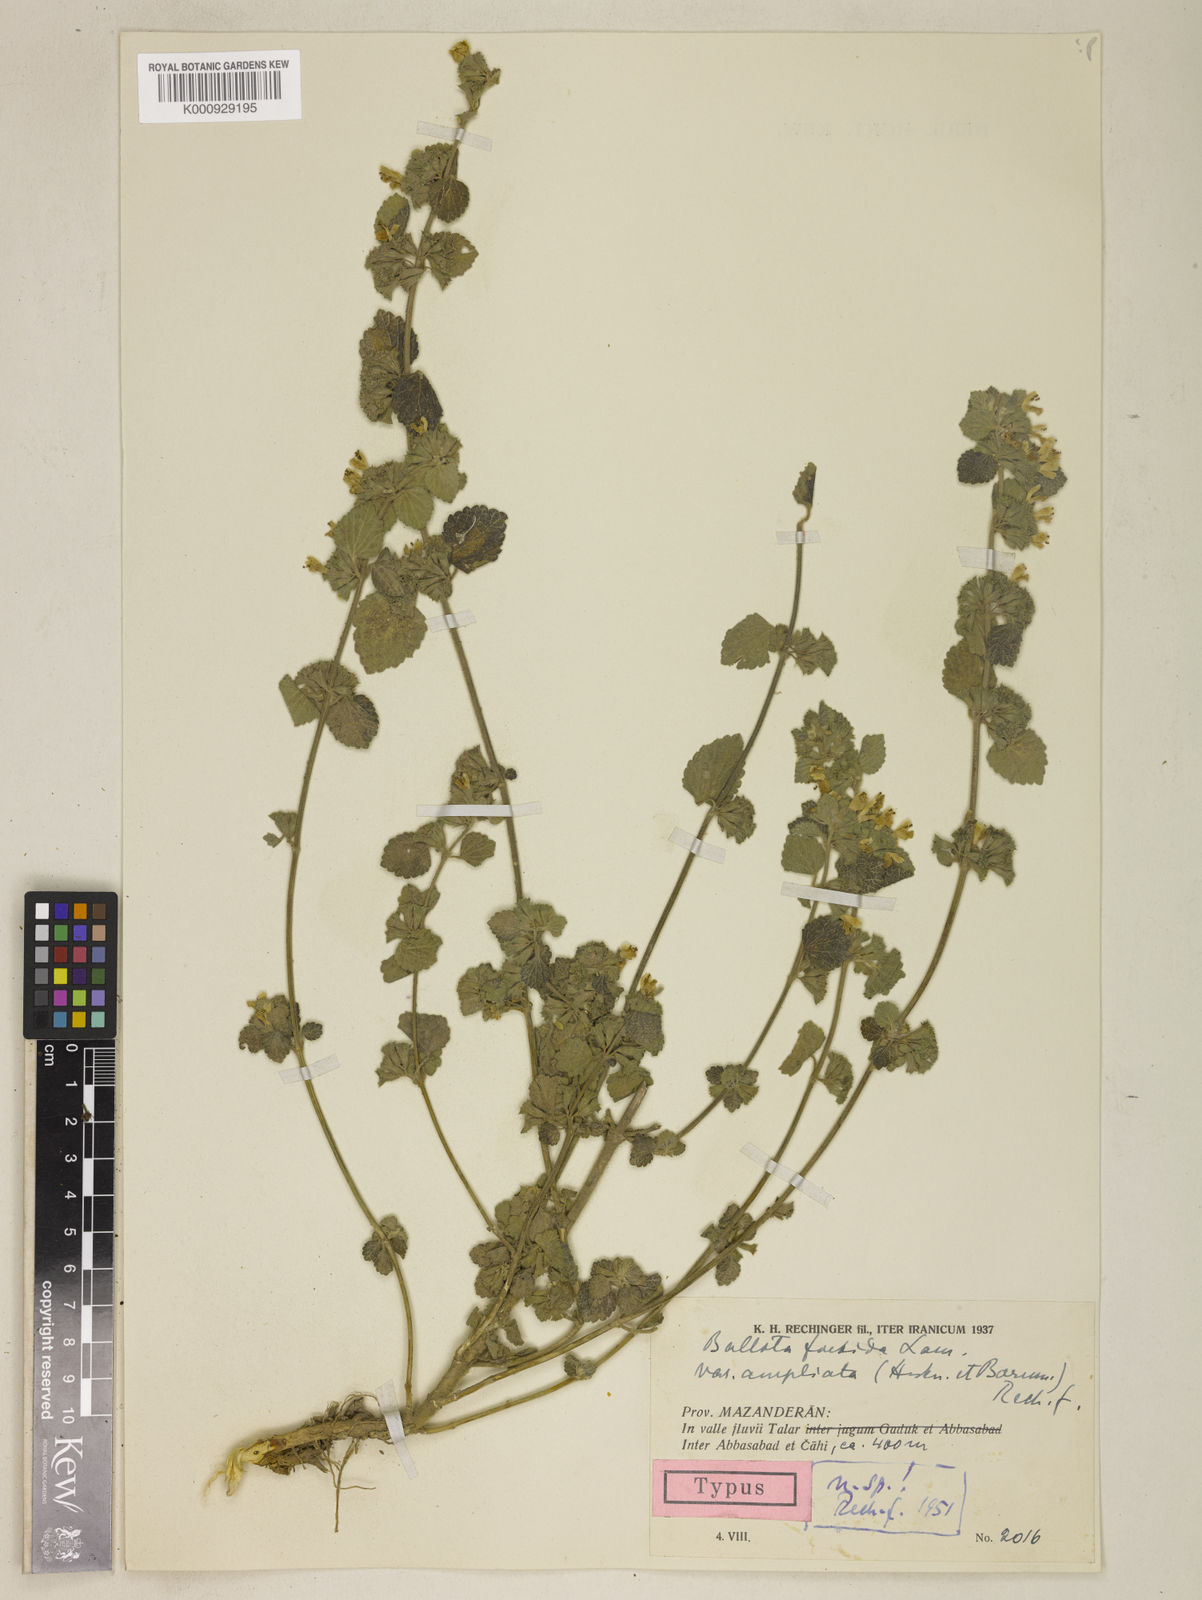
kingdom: Plantae
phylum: Tracheophyta
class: Magnoliopsida
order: Lamiales
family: Lamiaceae
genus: Ballota
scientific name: Ballota nigra
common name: Black horehound
